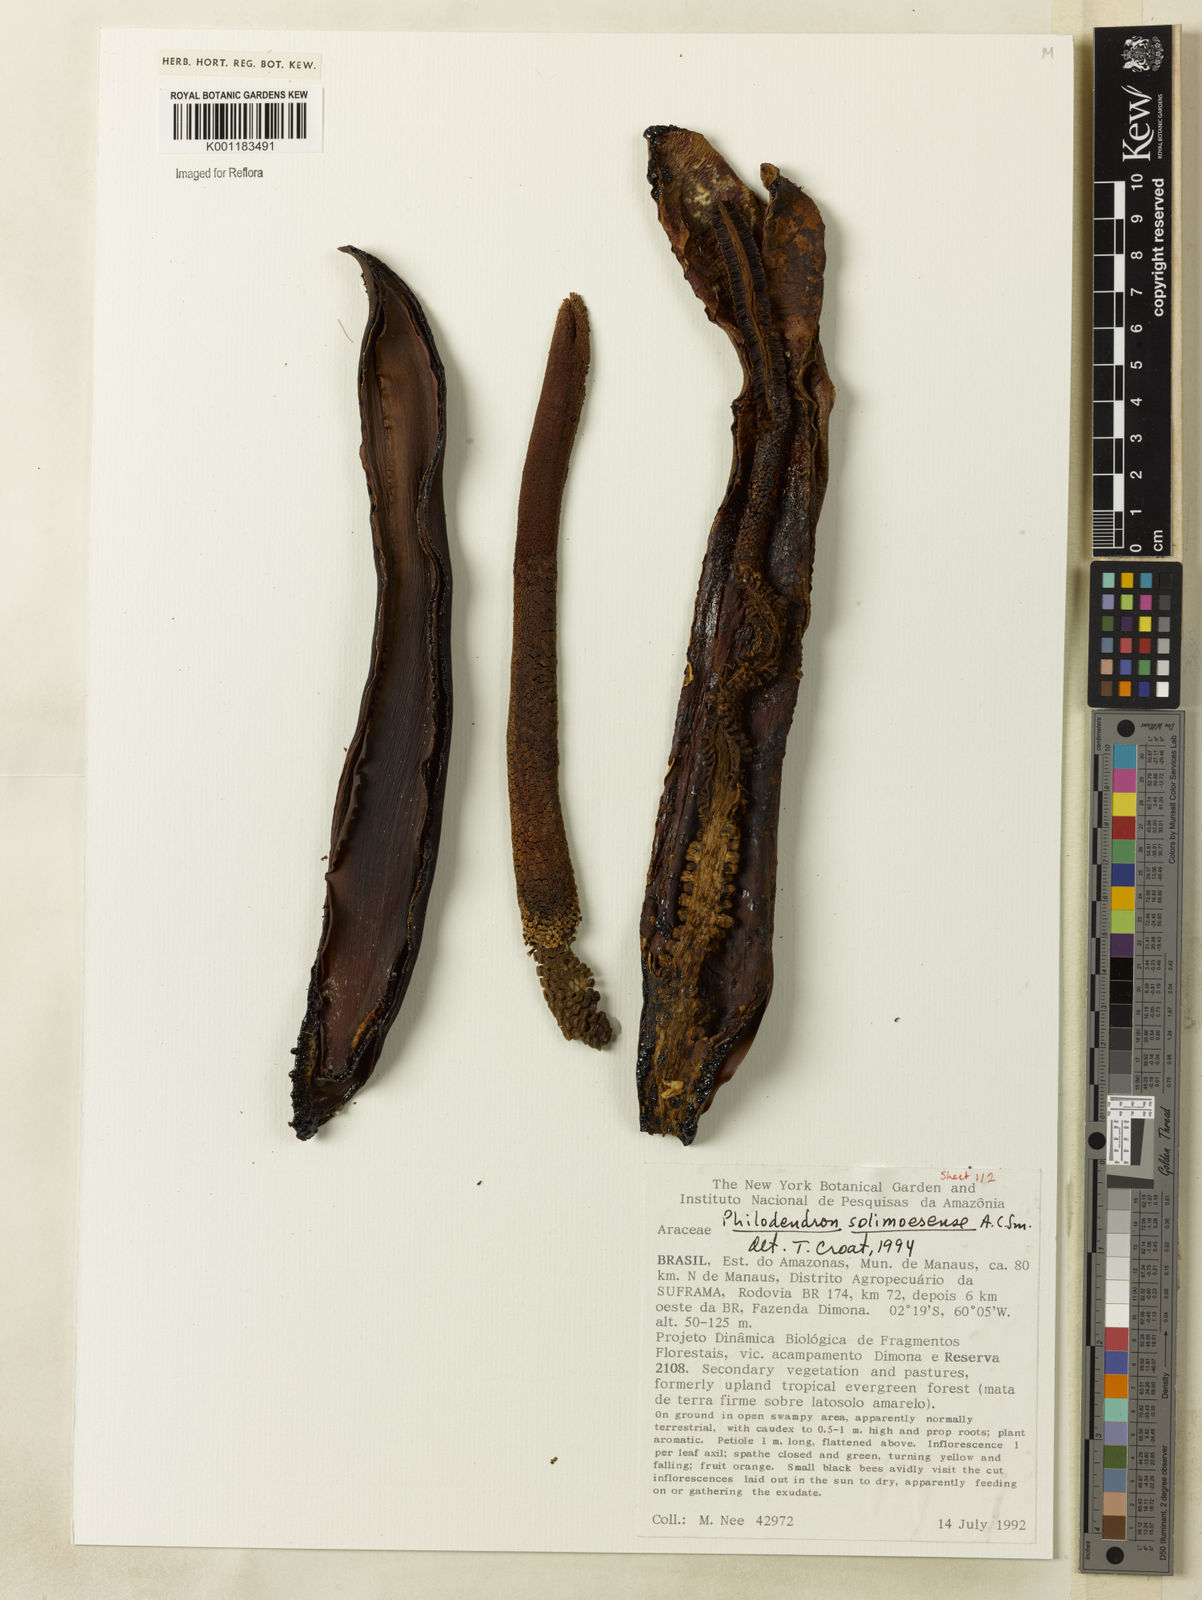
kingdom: Plantae
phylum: Tracheophyta
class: Liliopsida
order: Alismatales
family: Araceae
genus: Thaumatophyllum
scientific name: Thaumatophyllum solimoesense
